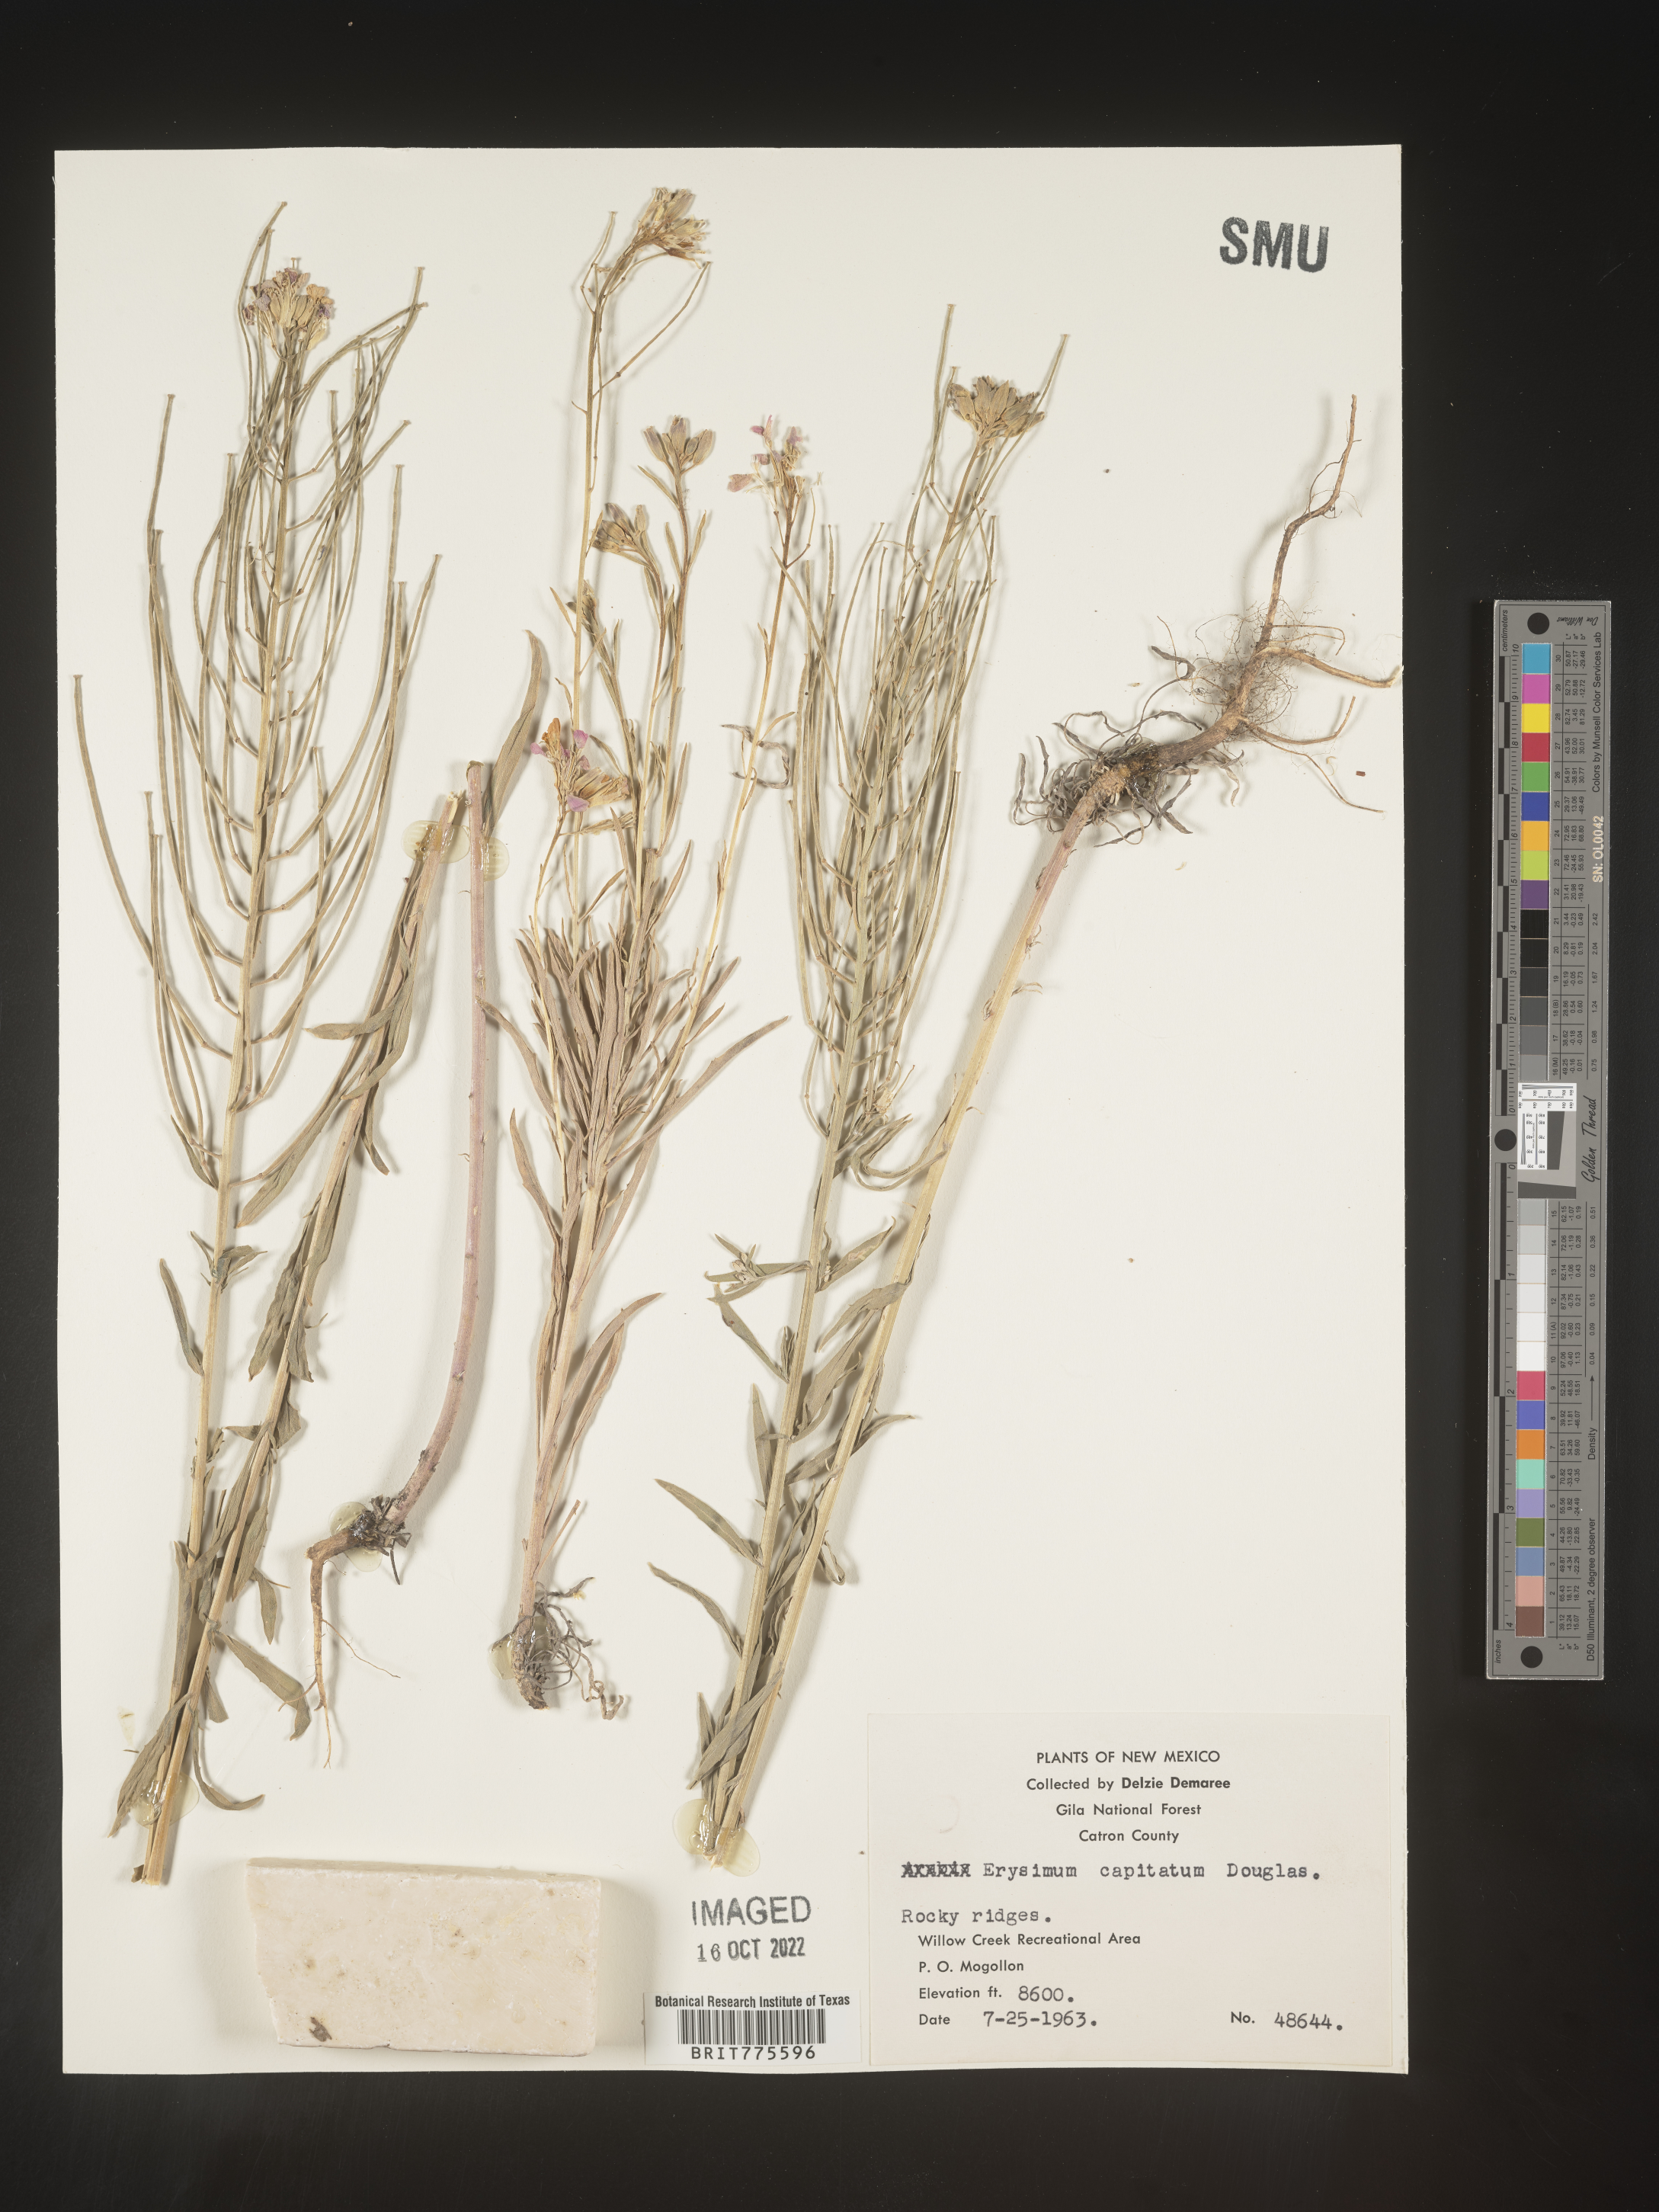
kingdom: Plantae
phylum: Tracheophyta
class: Magnoliopsida
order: Brassicales
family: Brassicaceae
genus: Erysimum
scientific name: Erysimum capitatum
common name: Western wallflower
